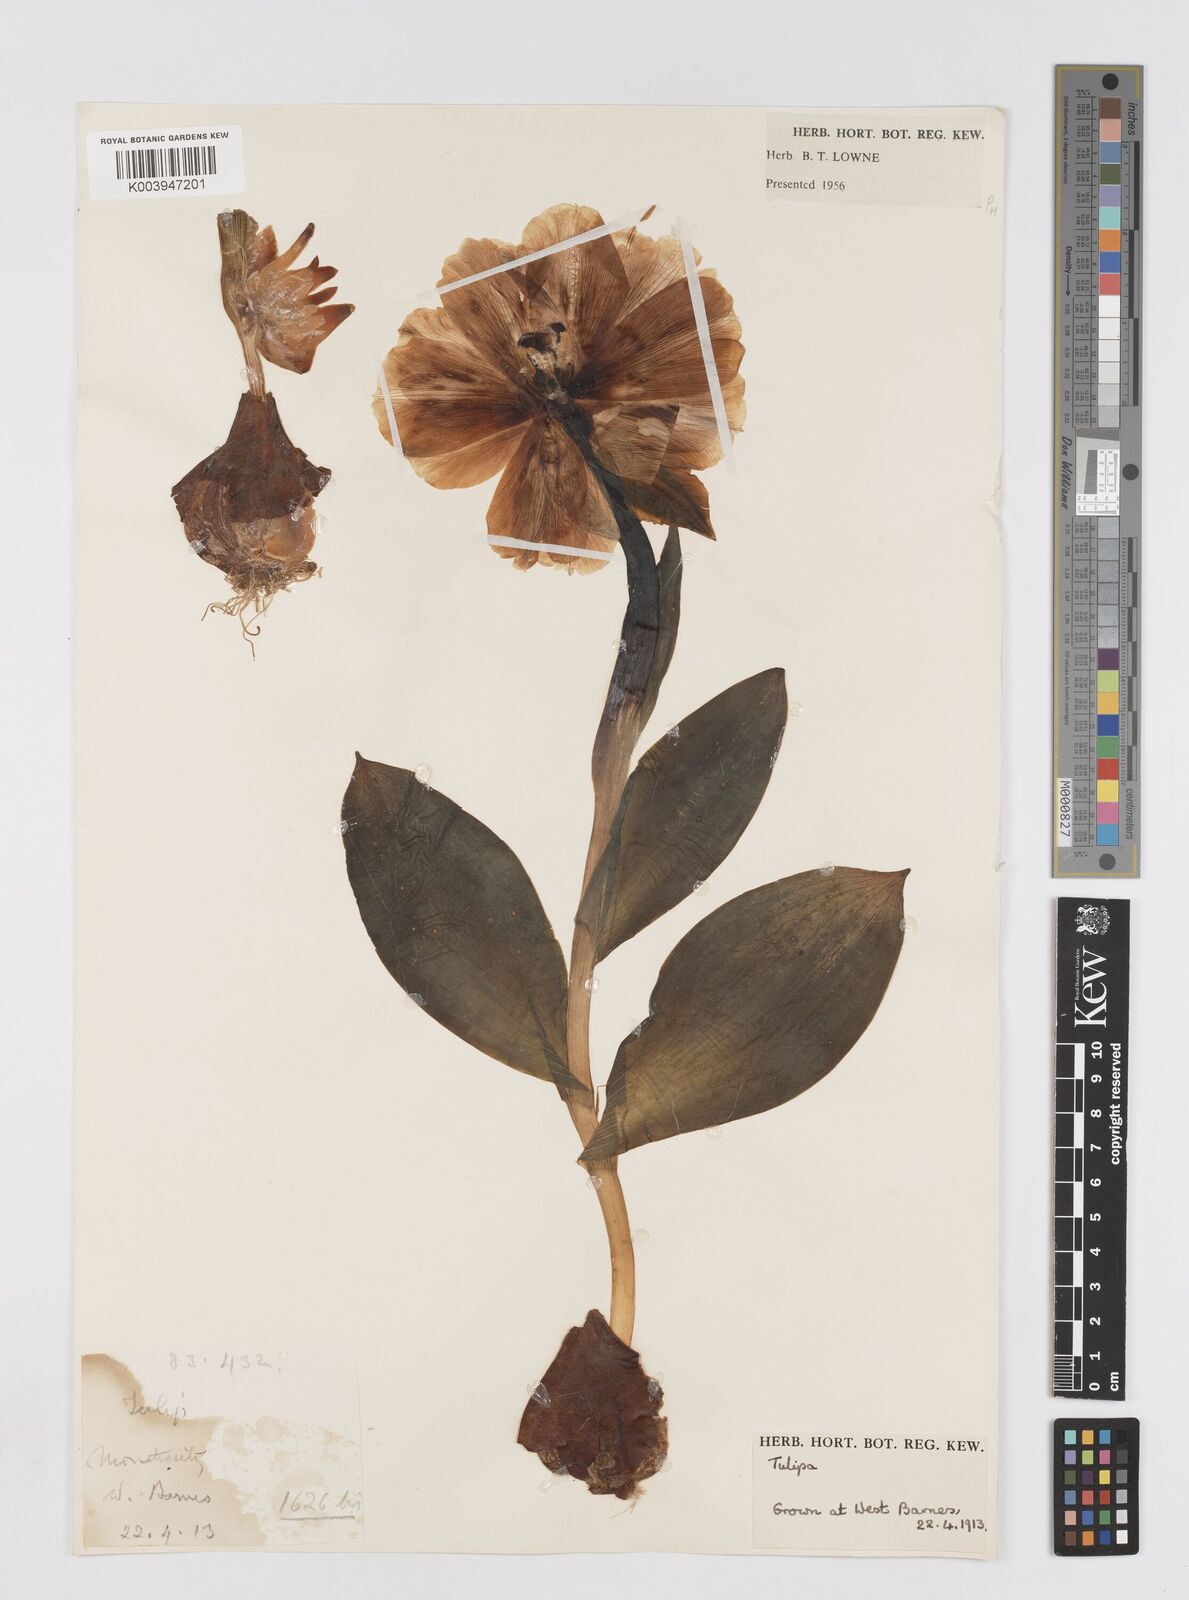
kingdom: Plantae
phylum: Tracheophyta
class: Liliopsida
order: Liliales
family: Liliaceae
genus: Tulipa
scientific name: Tulipa gesneriana
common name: Garden tulip
